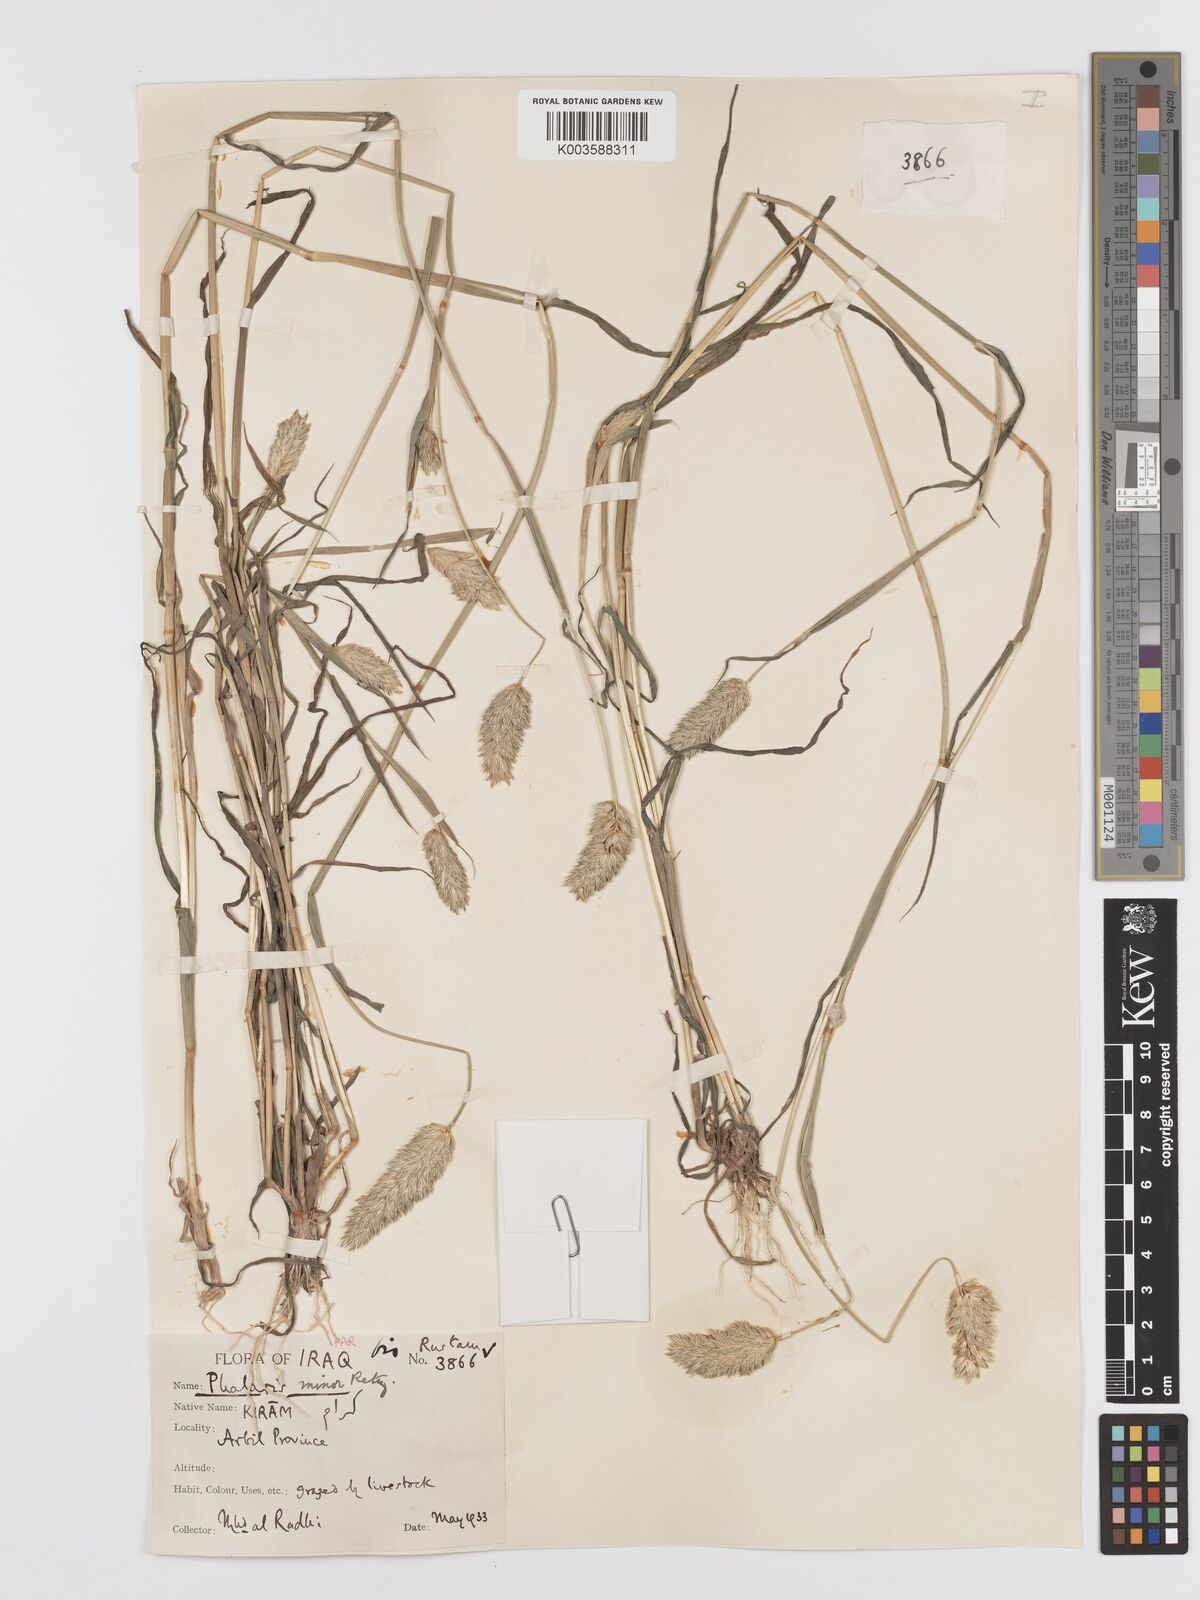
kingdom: Plantae
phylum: Tracheophyta
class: Liliopsida
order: Poales
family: Poaceae
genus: Phalaris
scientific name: Phalaris minor
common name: Littleseed canarygrass
